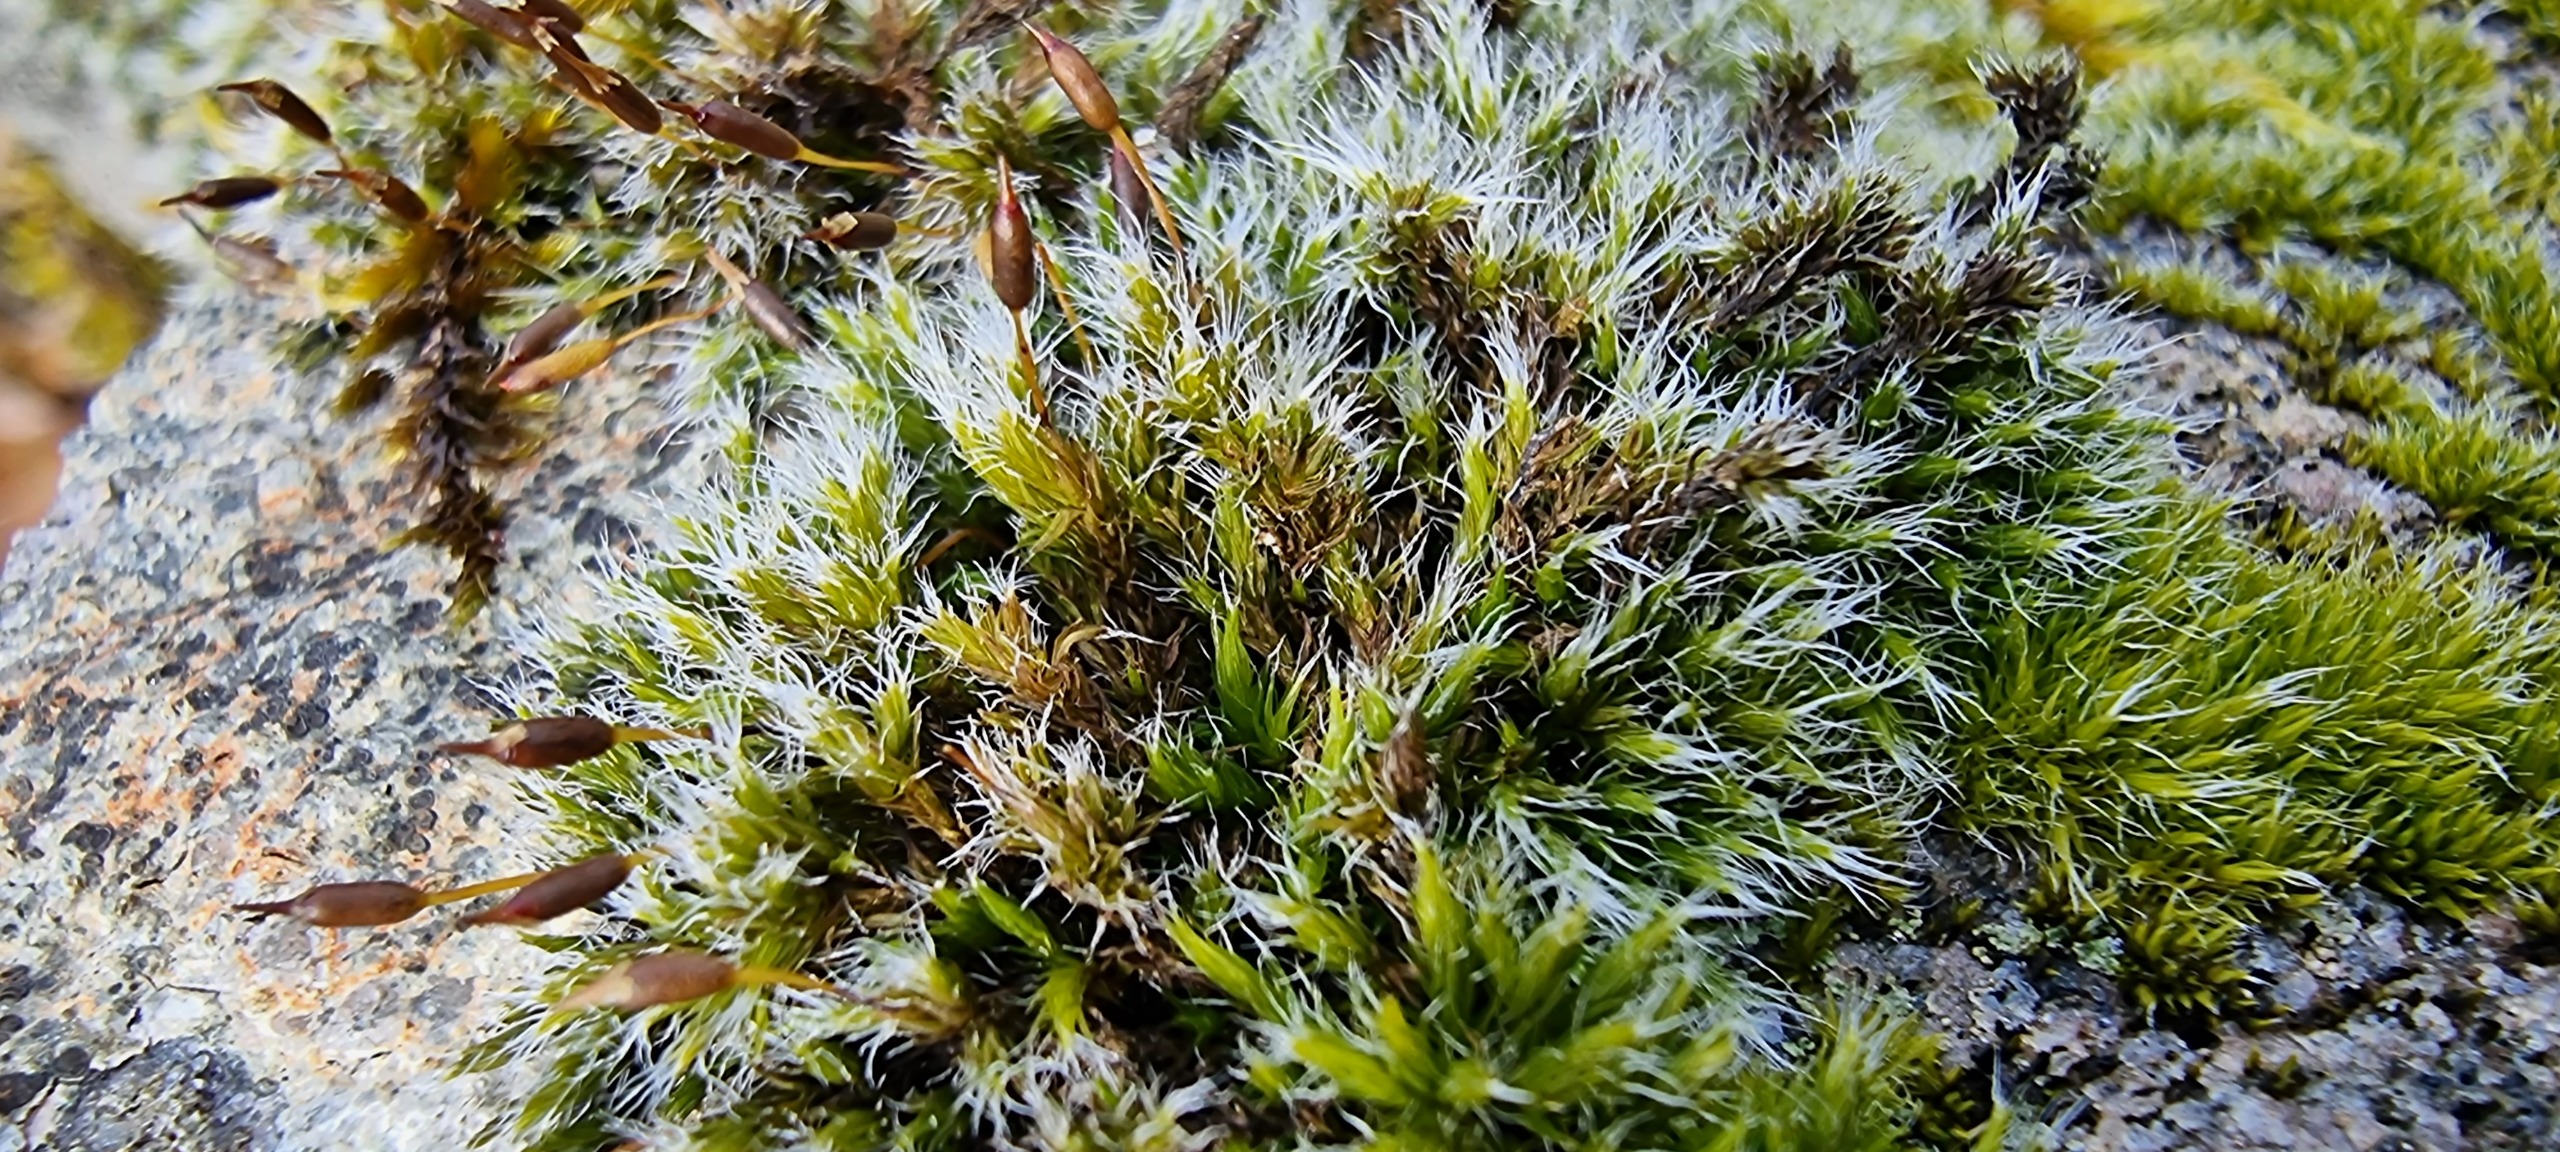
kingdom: Plantae
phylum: Bryophyta
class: Bryopsida
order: Grimmiales
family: Grimmiaceae
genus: Bucklandiella
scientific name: Bucklandiella heterosticha
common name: Sten-børstemos
